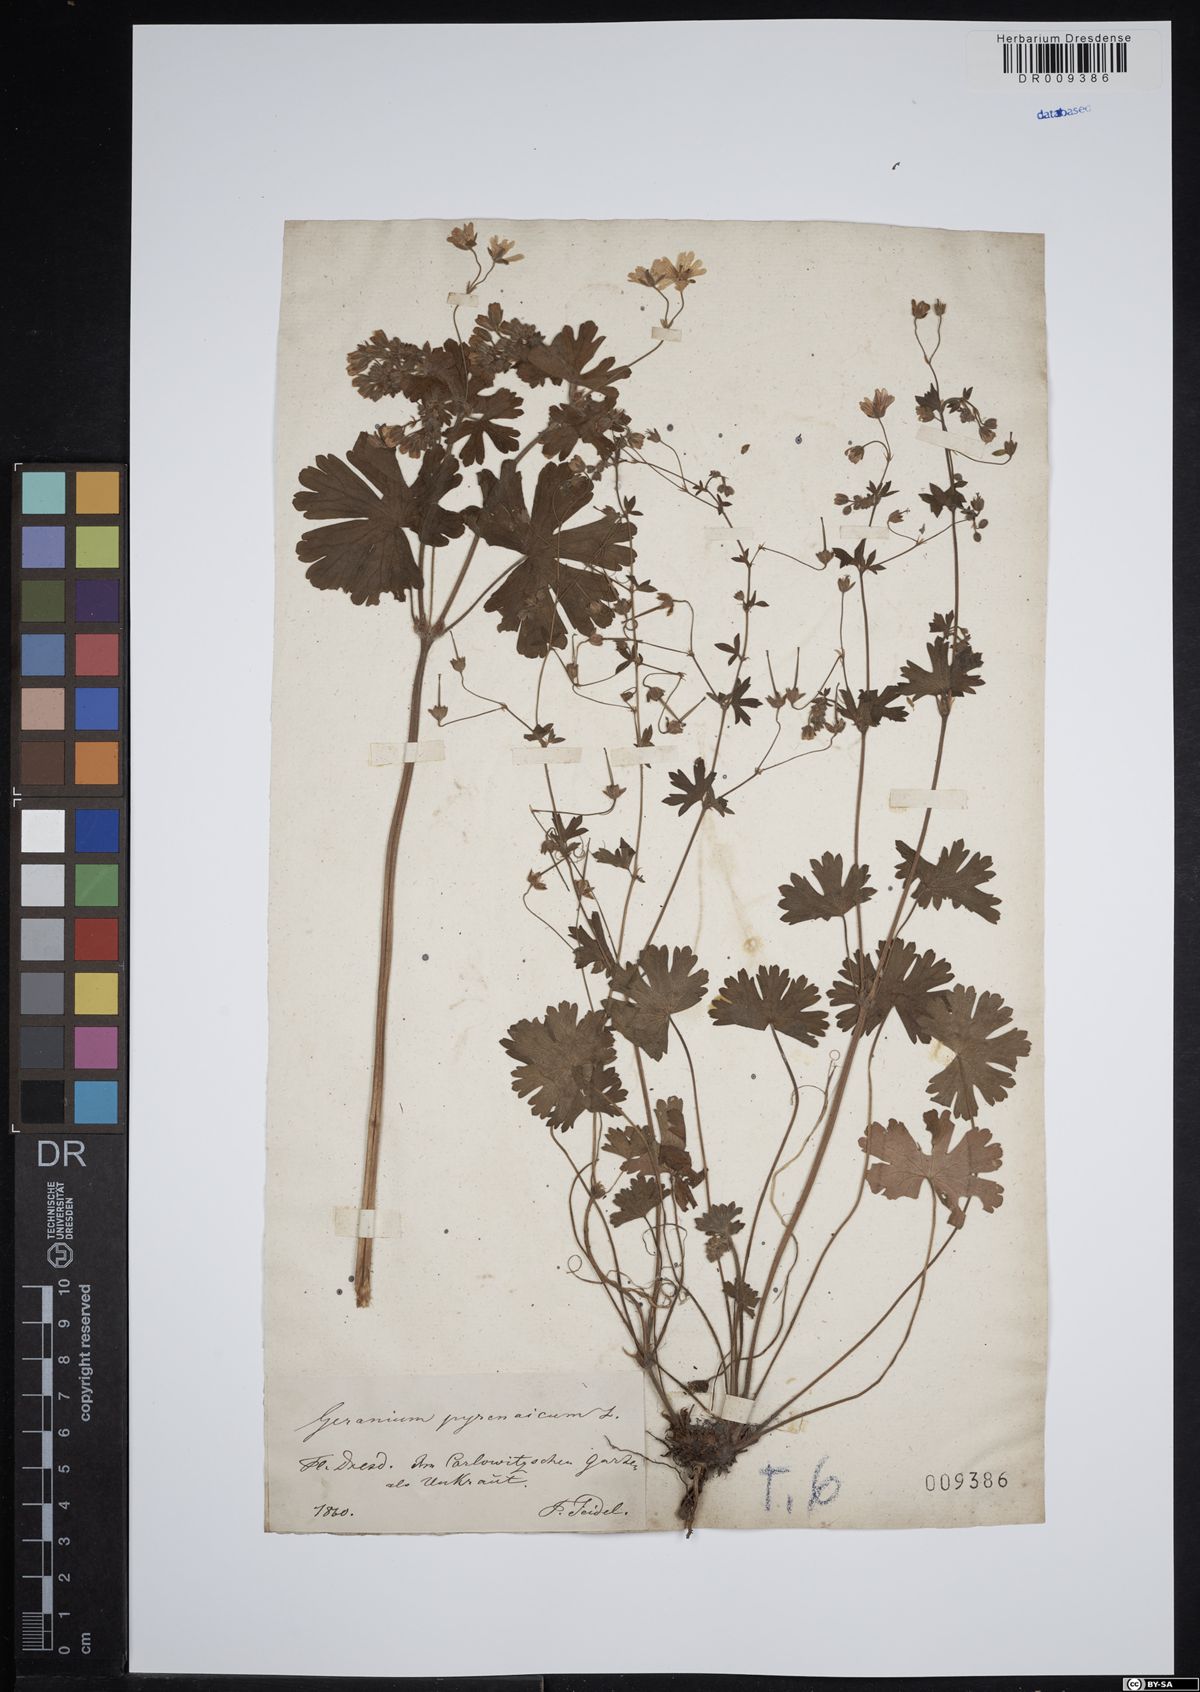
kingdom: Plantae
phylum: Tracheophyta
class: Magnoliopsida
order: Geraniales
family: Geraniaceae
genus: Geranium
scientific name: Geranium pyrenaicum
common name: Hedgerow crane's-bill
